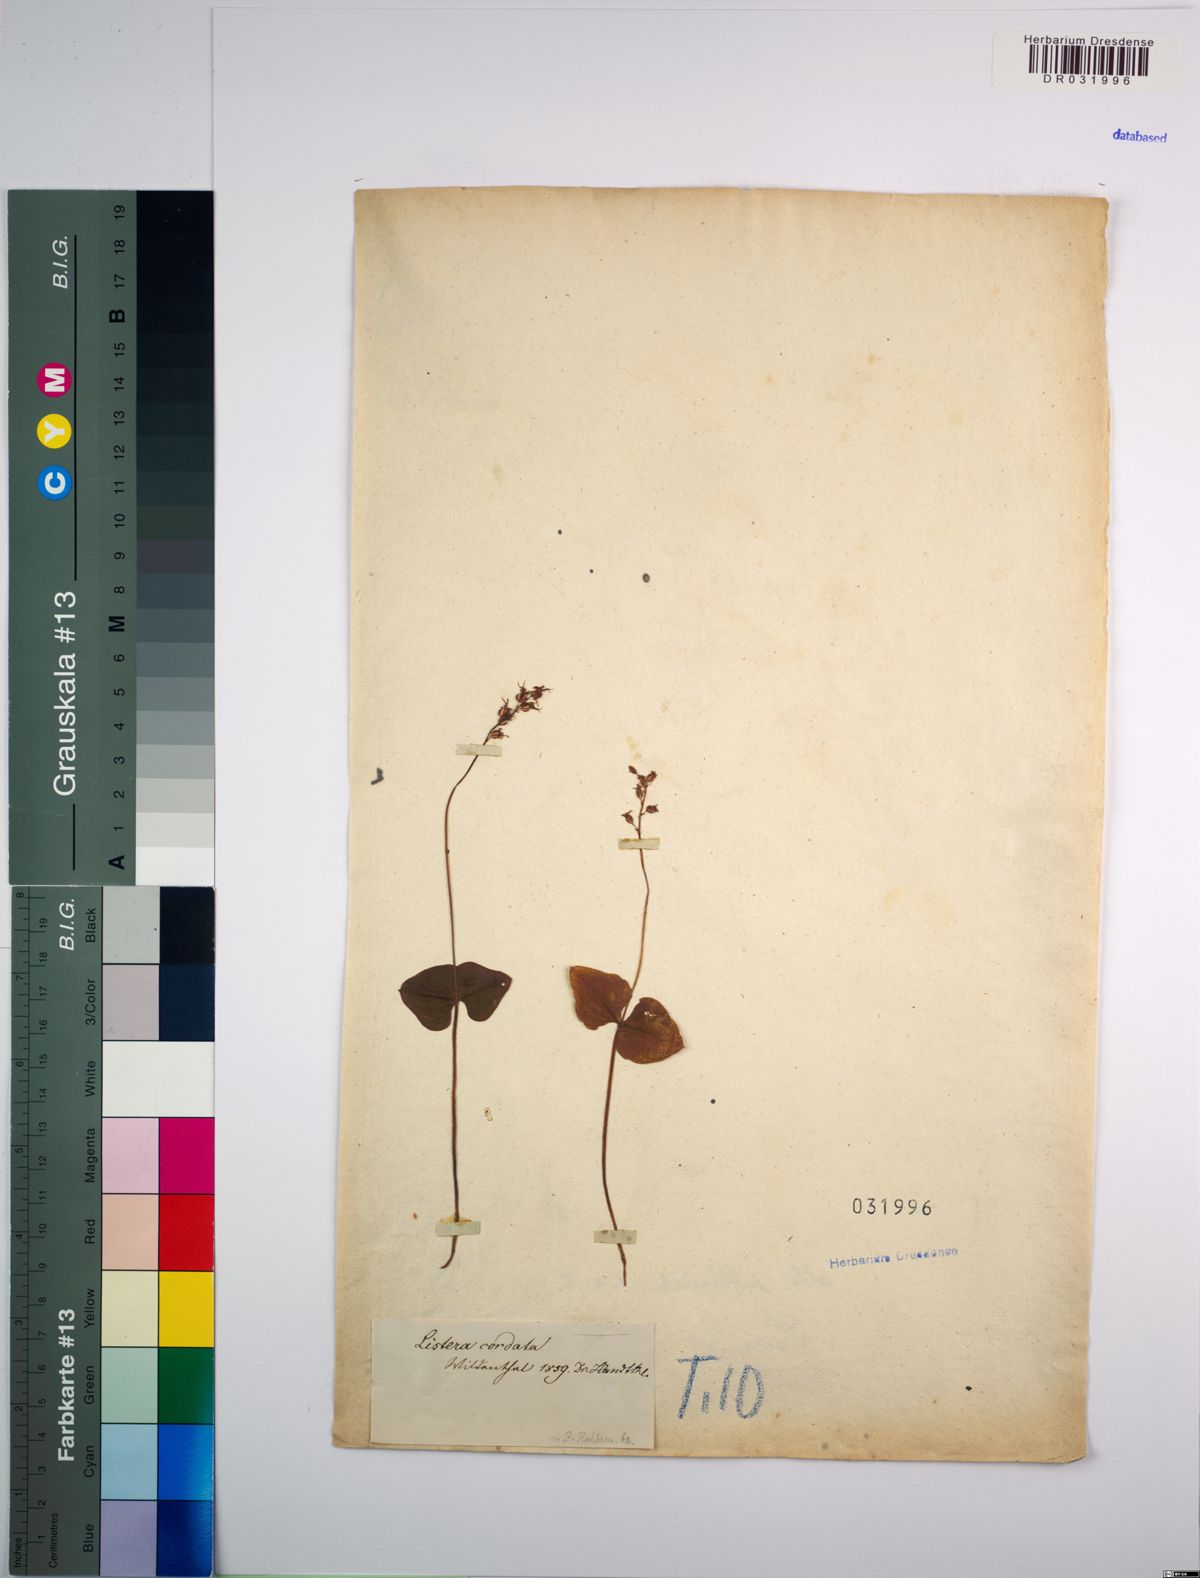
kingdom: Plantae
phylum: Tracheophyta
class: Liliopsida
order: Asparagales
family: Orchidaceae
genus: Neottia
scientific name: Neottia cordata
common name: Lesser twayblade
